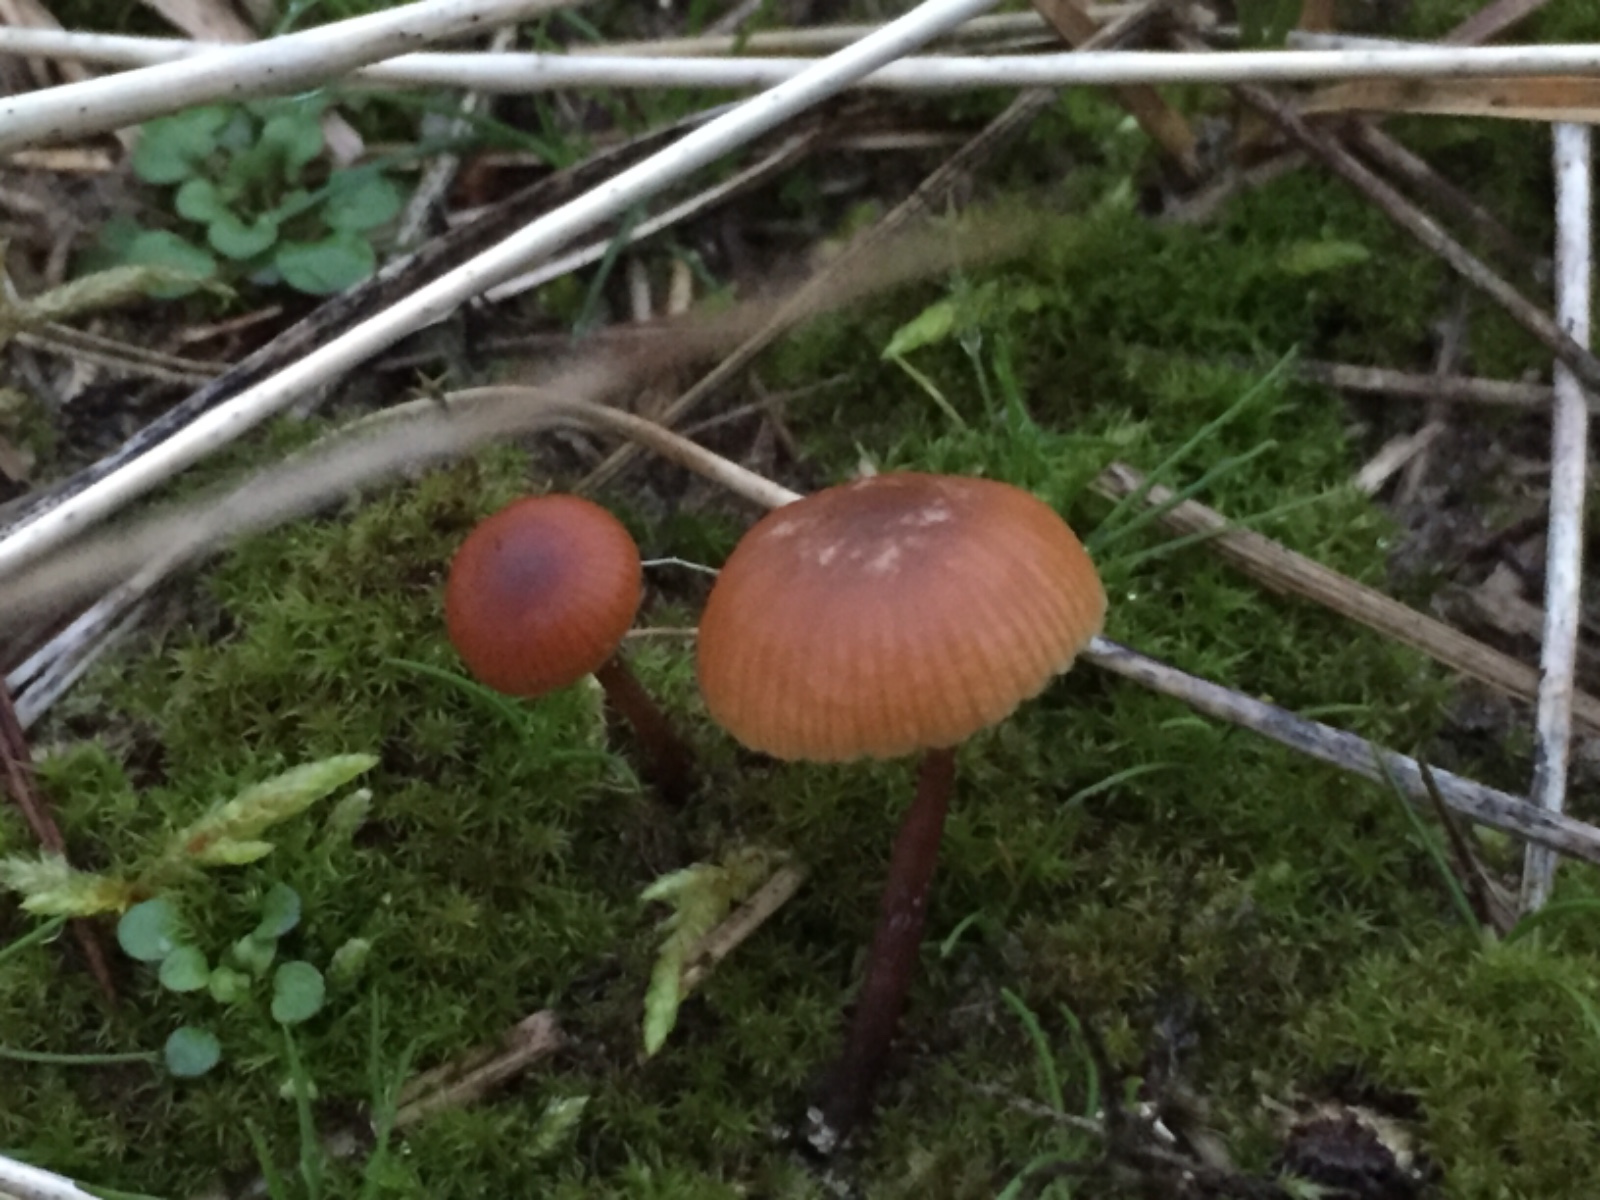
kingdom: Fungi
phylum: Basidiomycota
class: Agaricomycetes
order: Agaricales
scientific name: Agaricales
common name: champignonordenen
